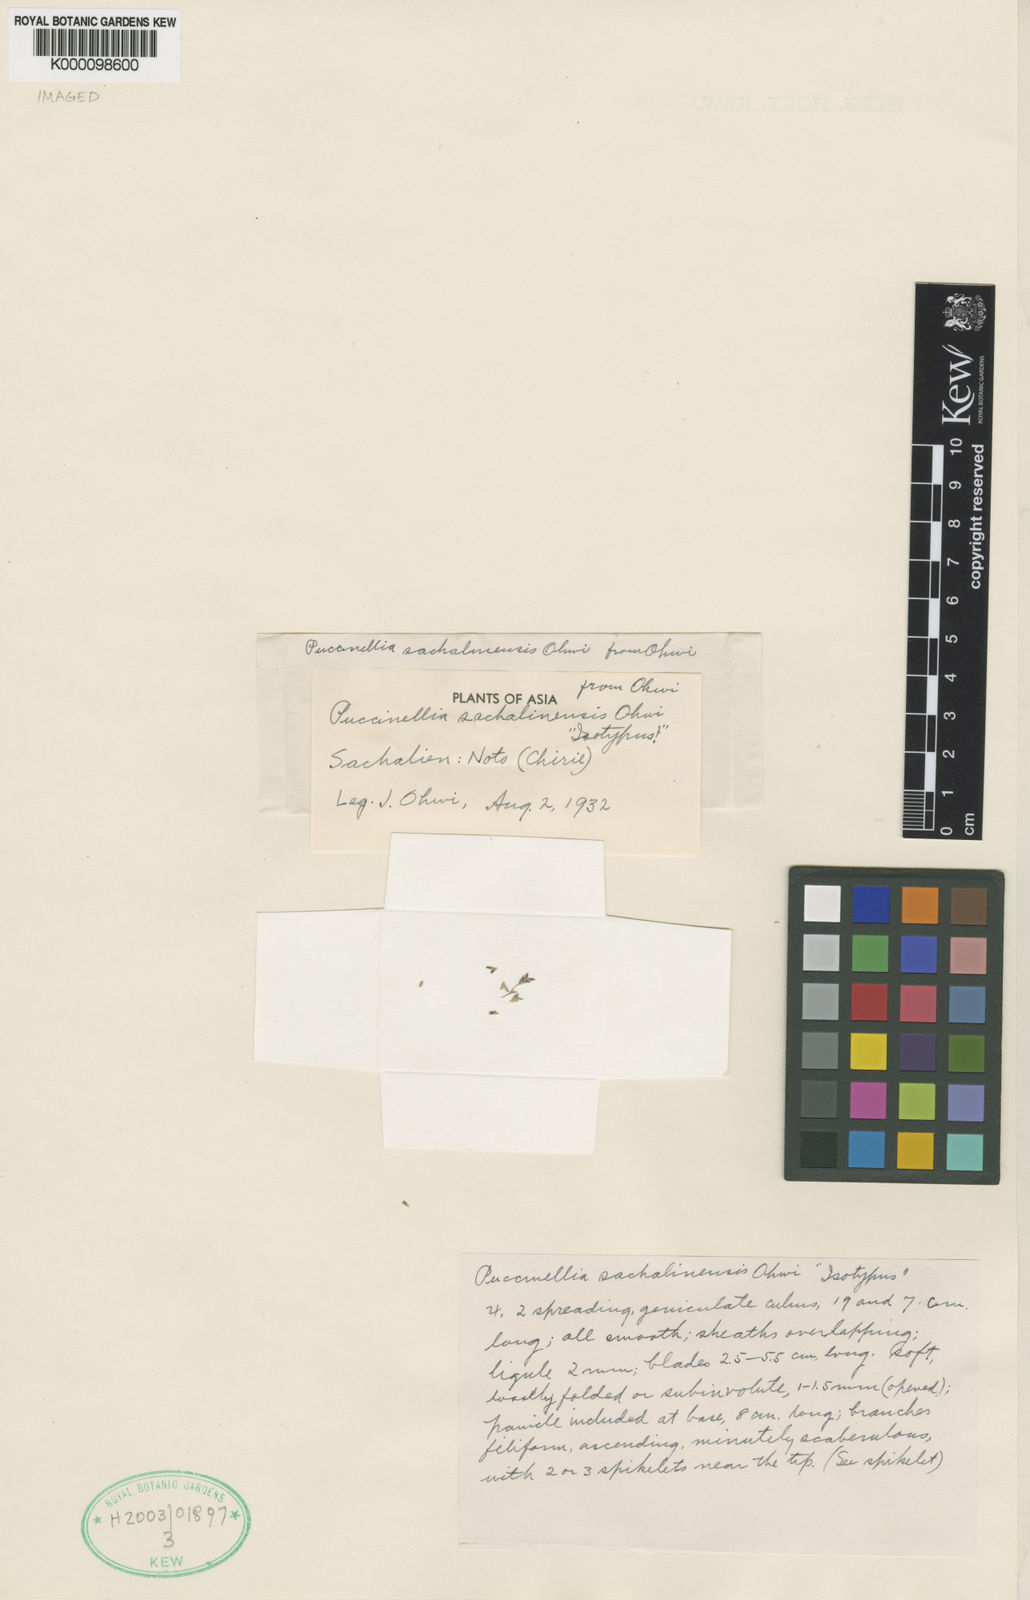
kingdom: Plantae
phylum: Tracheophyta
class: Liliopsida
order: Poales
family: Poaceae
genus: Puccinellia
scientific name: Puccinellia vaginata
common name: Arctic tussock alkaligrass
